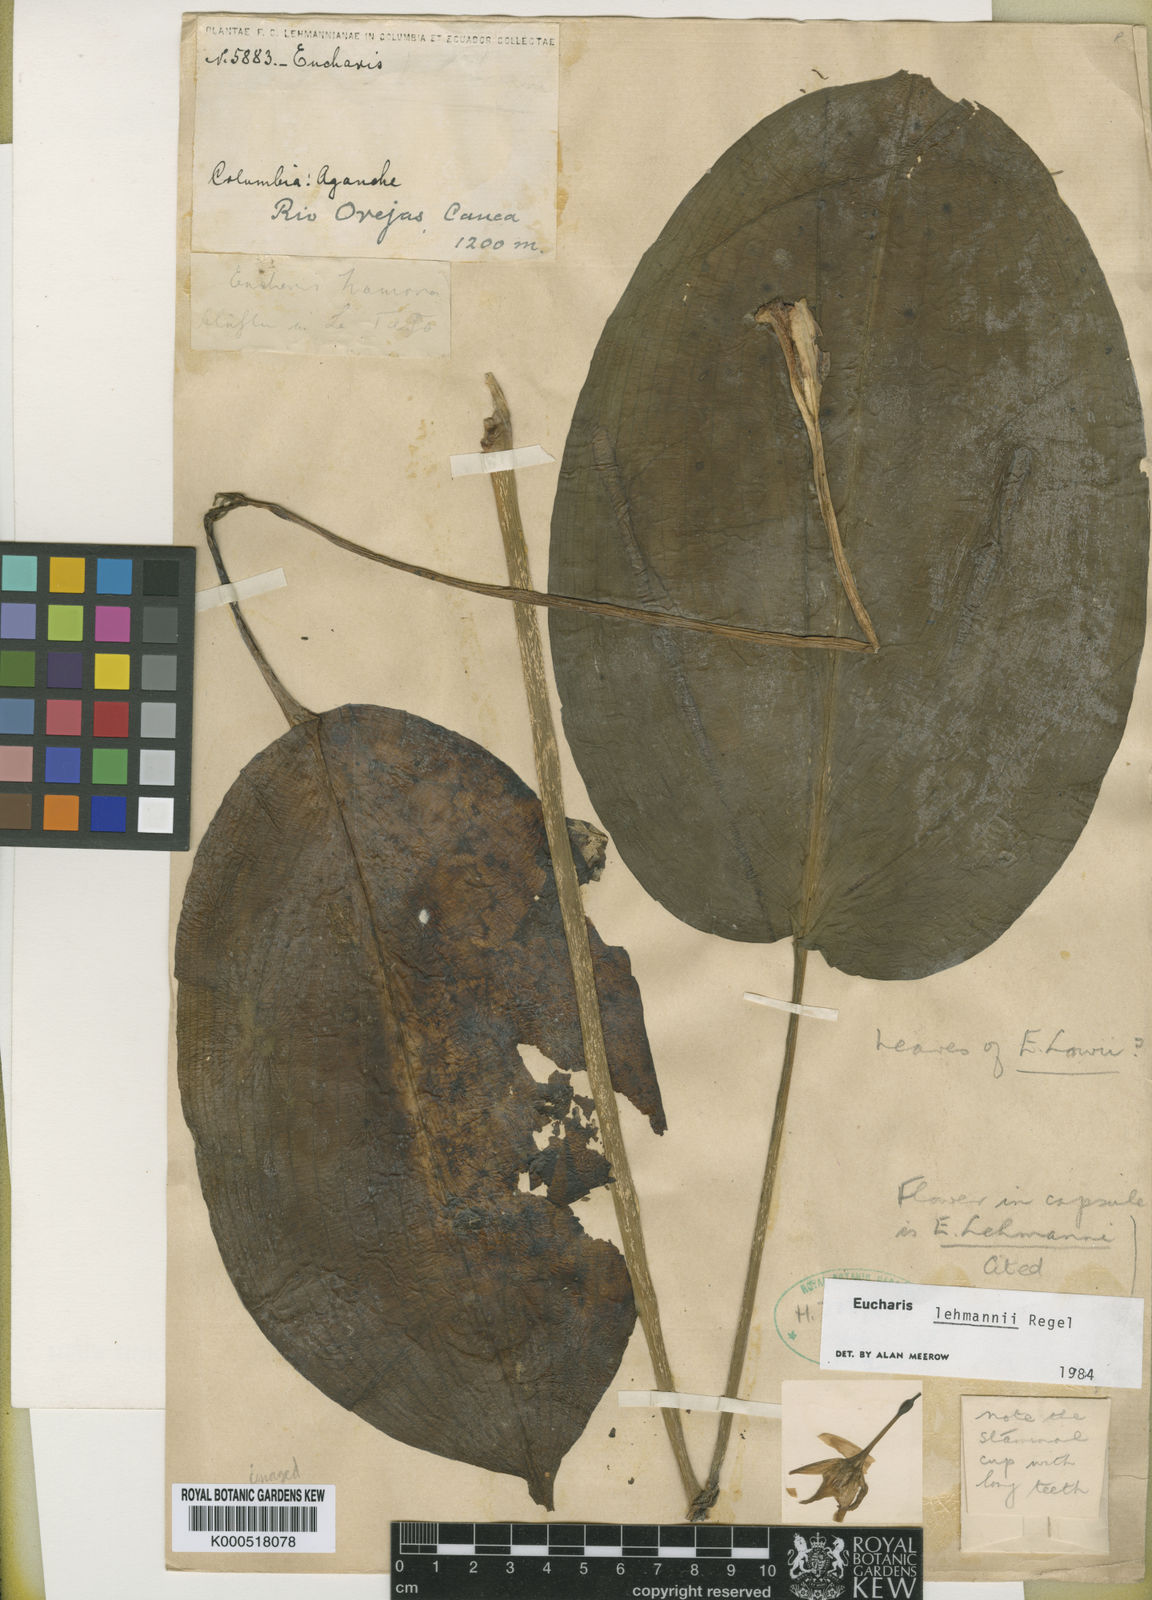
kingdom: Plantae
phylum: Tracheophyta
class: Liliopsida
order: Asparagales
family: Amaryllidaceae
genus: Urceolina
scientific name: Urceolina lehmannii
